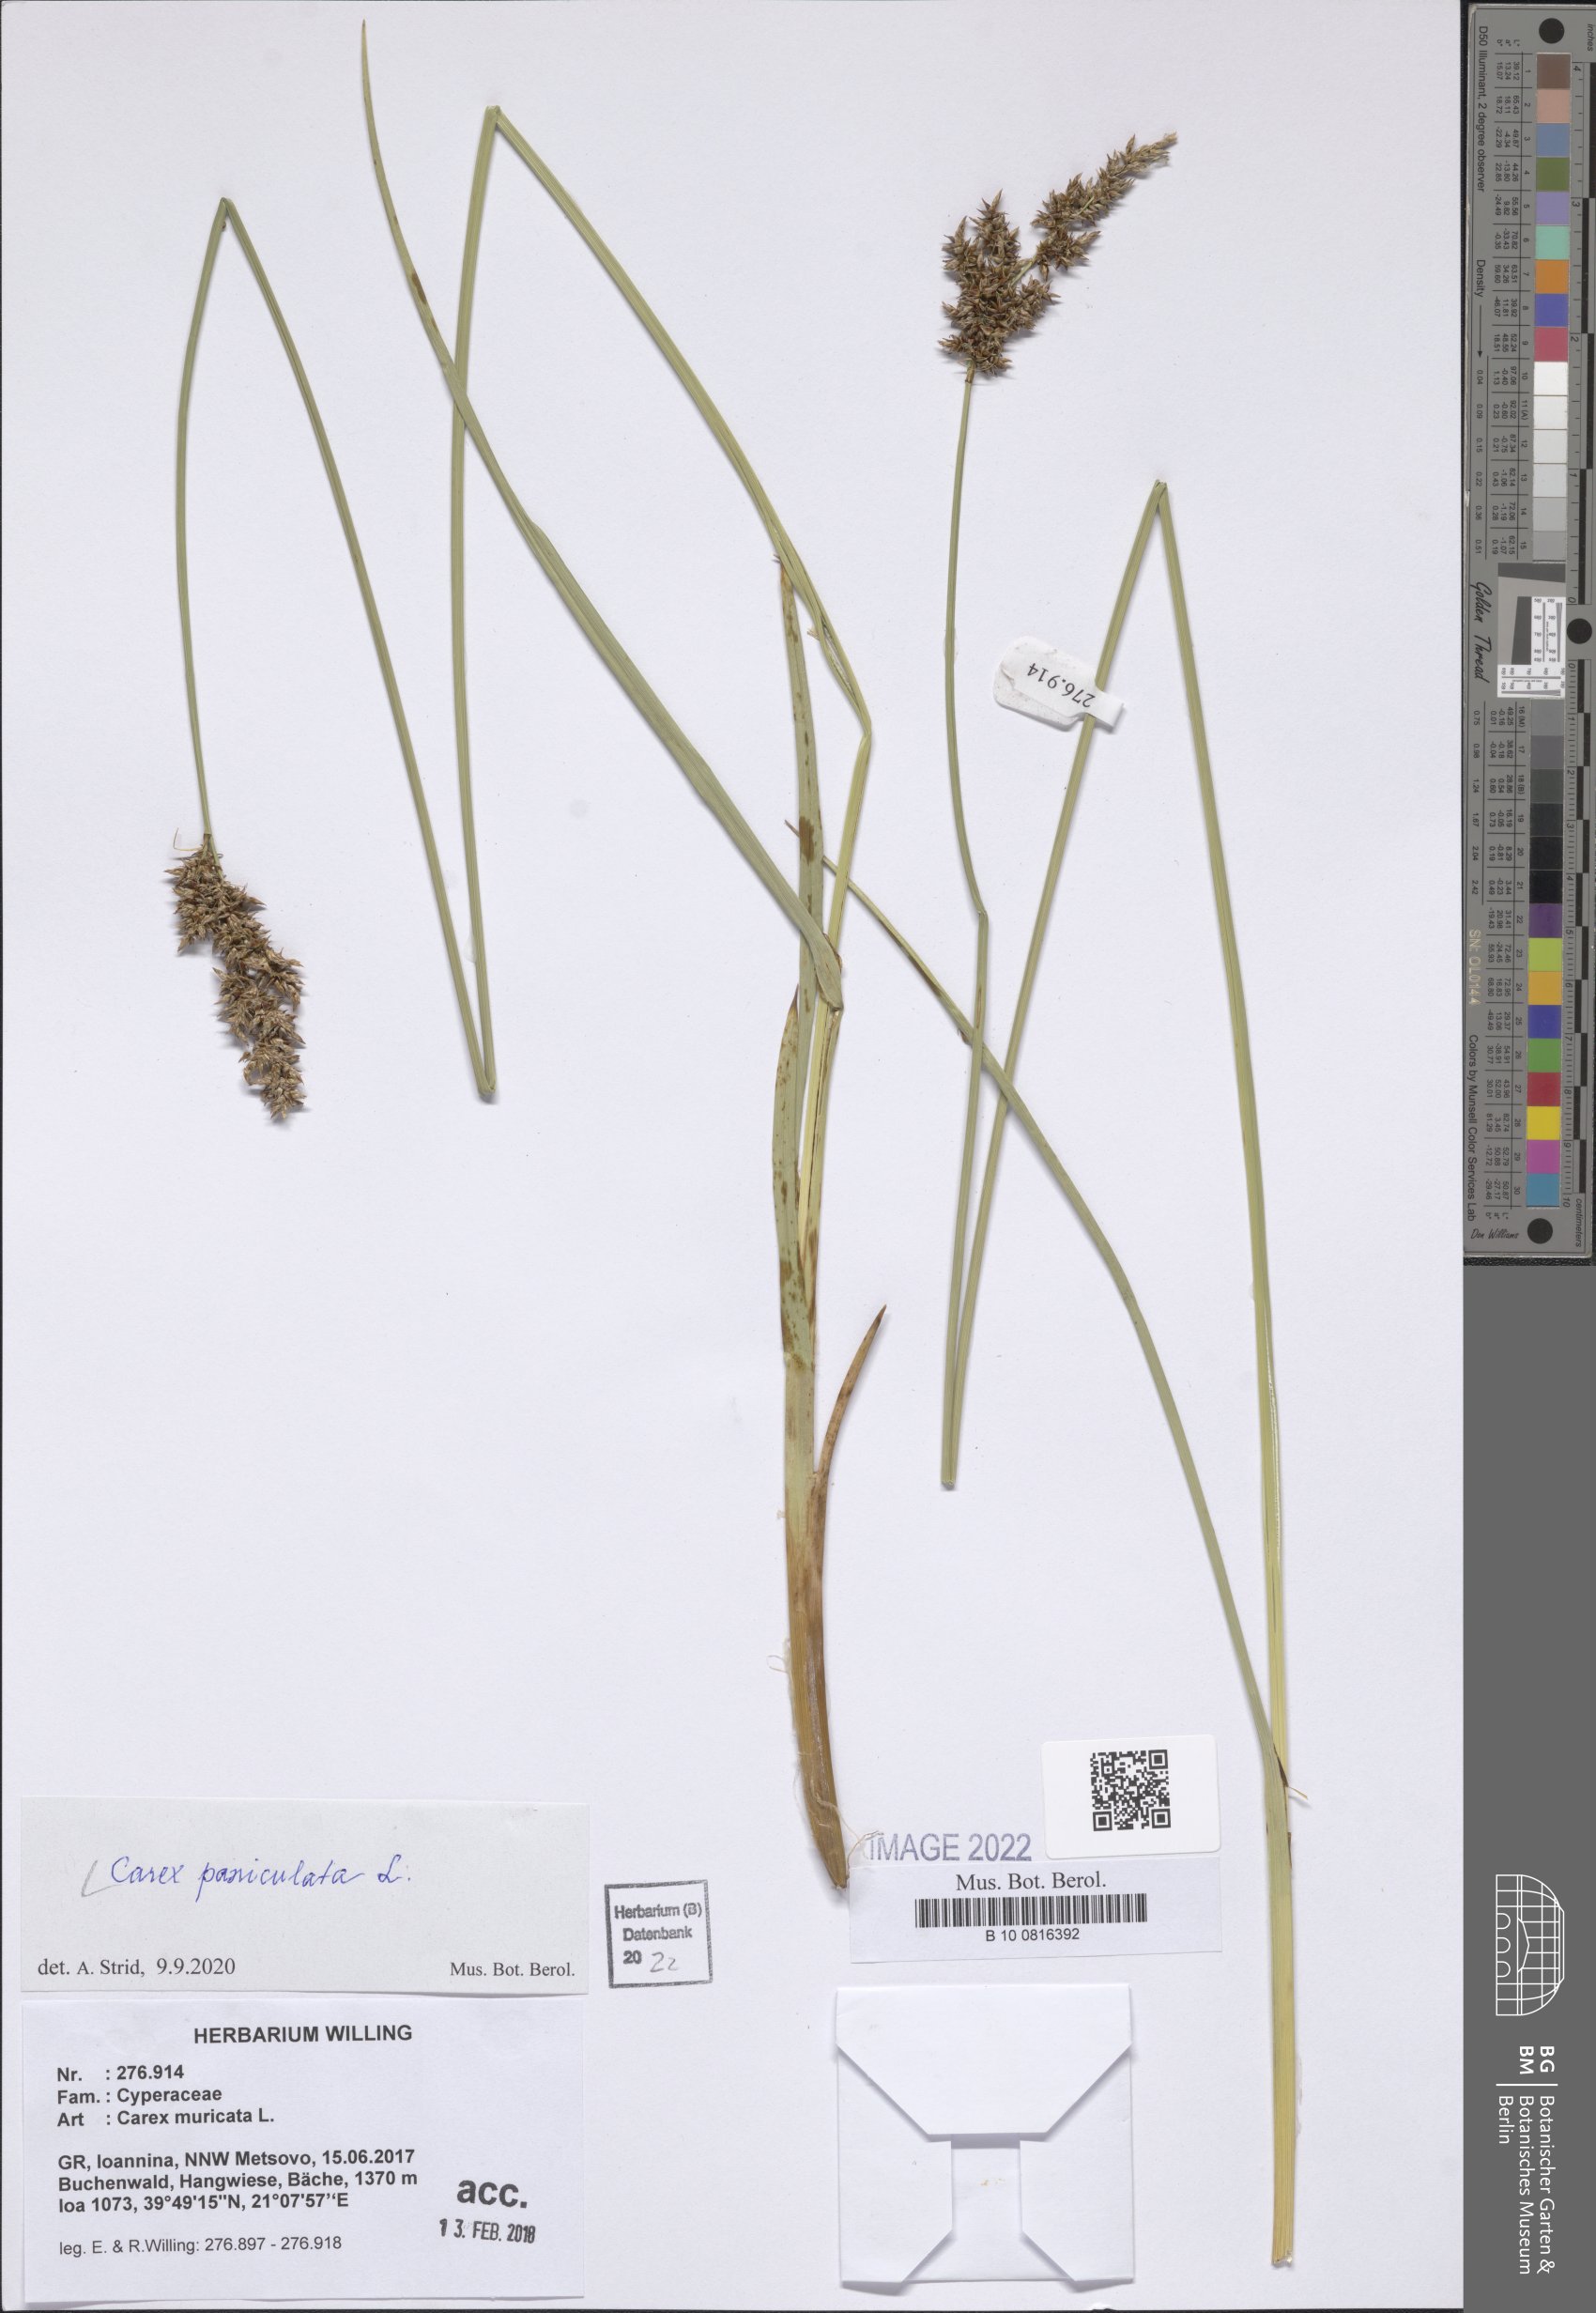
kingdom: Plantae
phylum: Tracheophyta
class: Liliopsida
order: Poales
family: Cyperaceae
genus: Carex
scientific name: Carex paniculata
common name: Greater tussock-sedge
